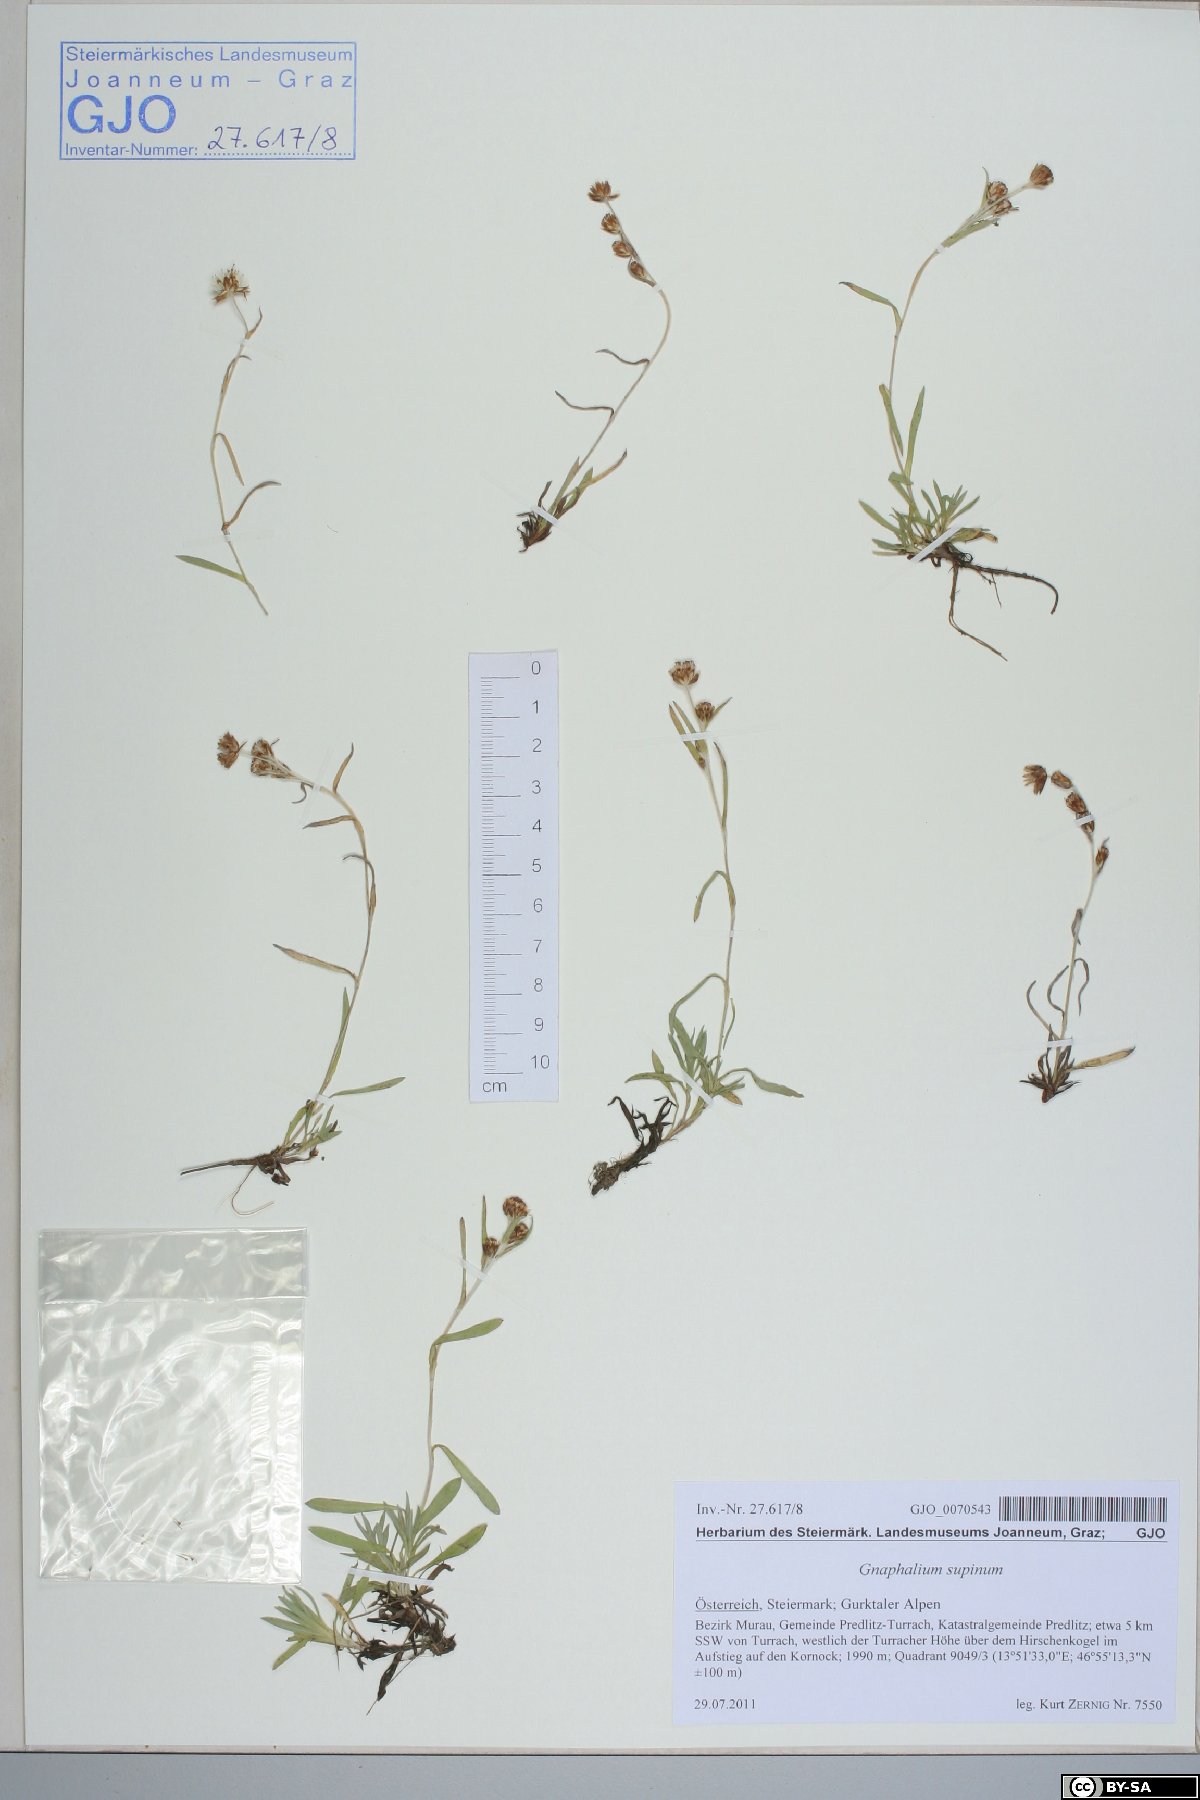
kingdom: Plantae
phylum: Tracheophyta
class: Magnoliopsida
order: Asterales
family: Asteraceae
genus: Omalotheca
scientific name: Omalotheca supina
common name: Alpine arctic-cudweed
